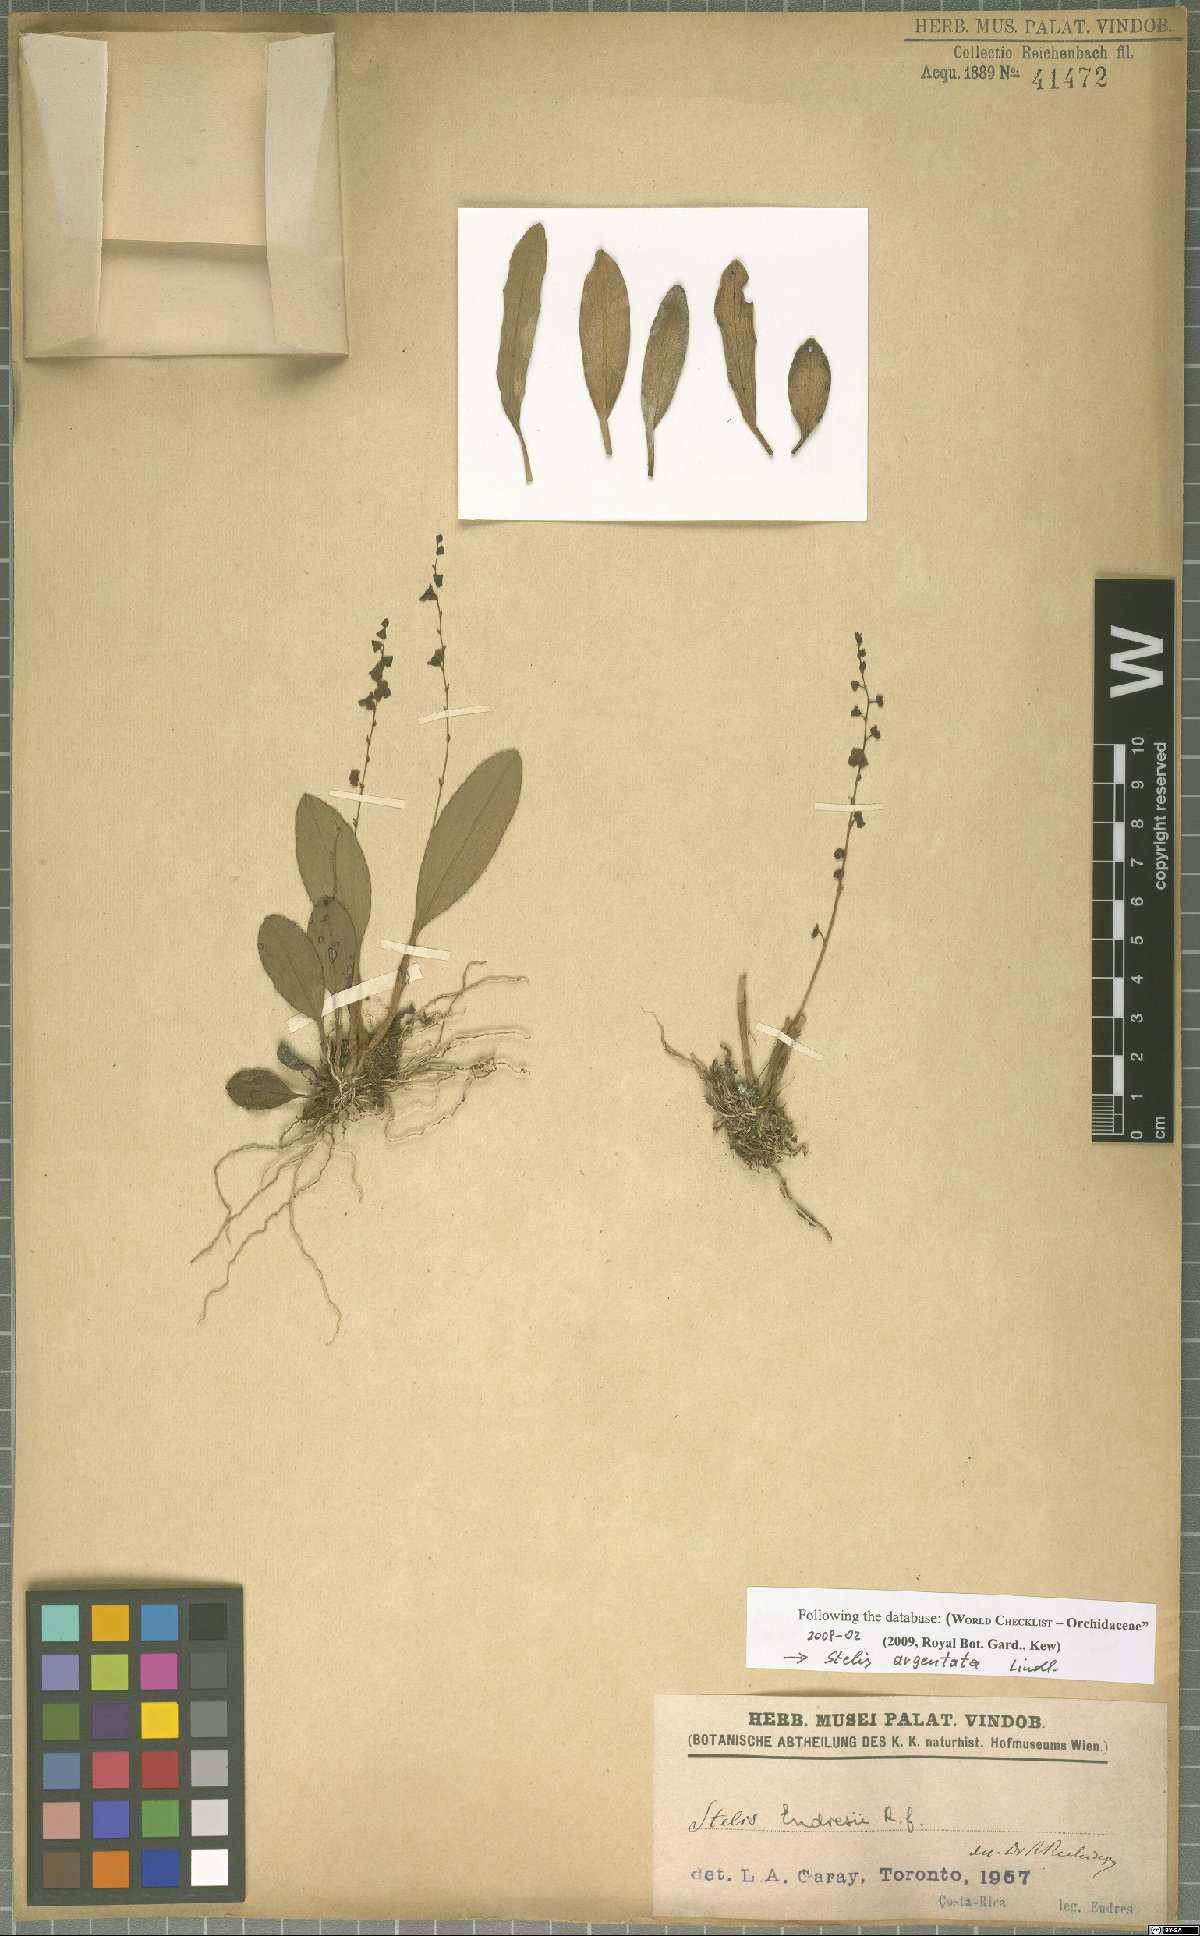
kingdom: Plantae
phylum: Tracheophyta
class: Liliopsida
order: Asparagales
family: Orchidaceae
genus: Stelis
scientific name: Stelis argentata
